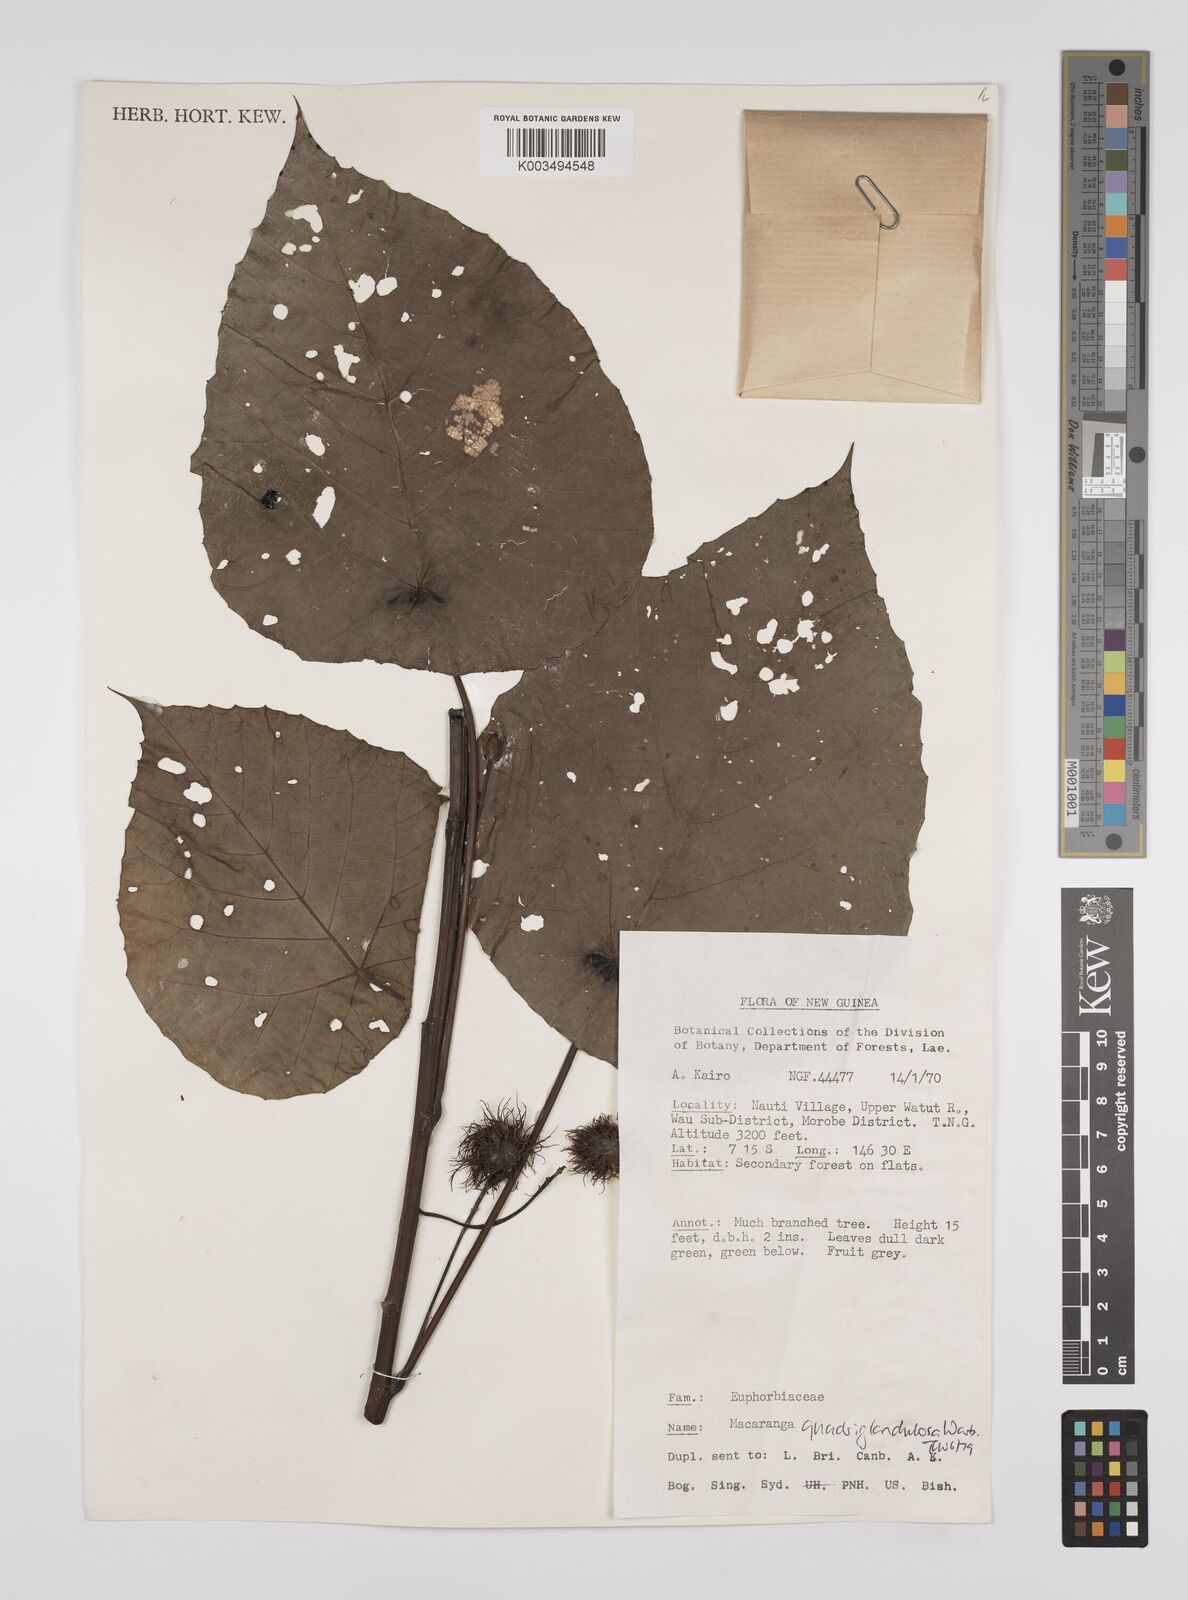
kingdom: Plantae
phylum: Tracheophyta
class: Magnoliopsida
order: Malpighiales
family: Euphorbiaceae
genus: Macaranga
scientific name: Macaranga quadriglandulosa
